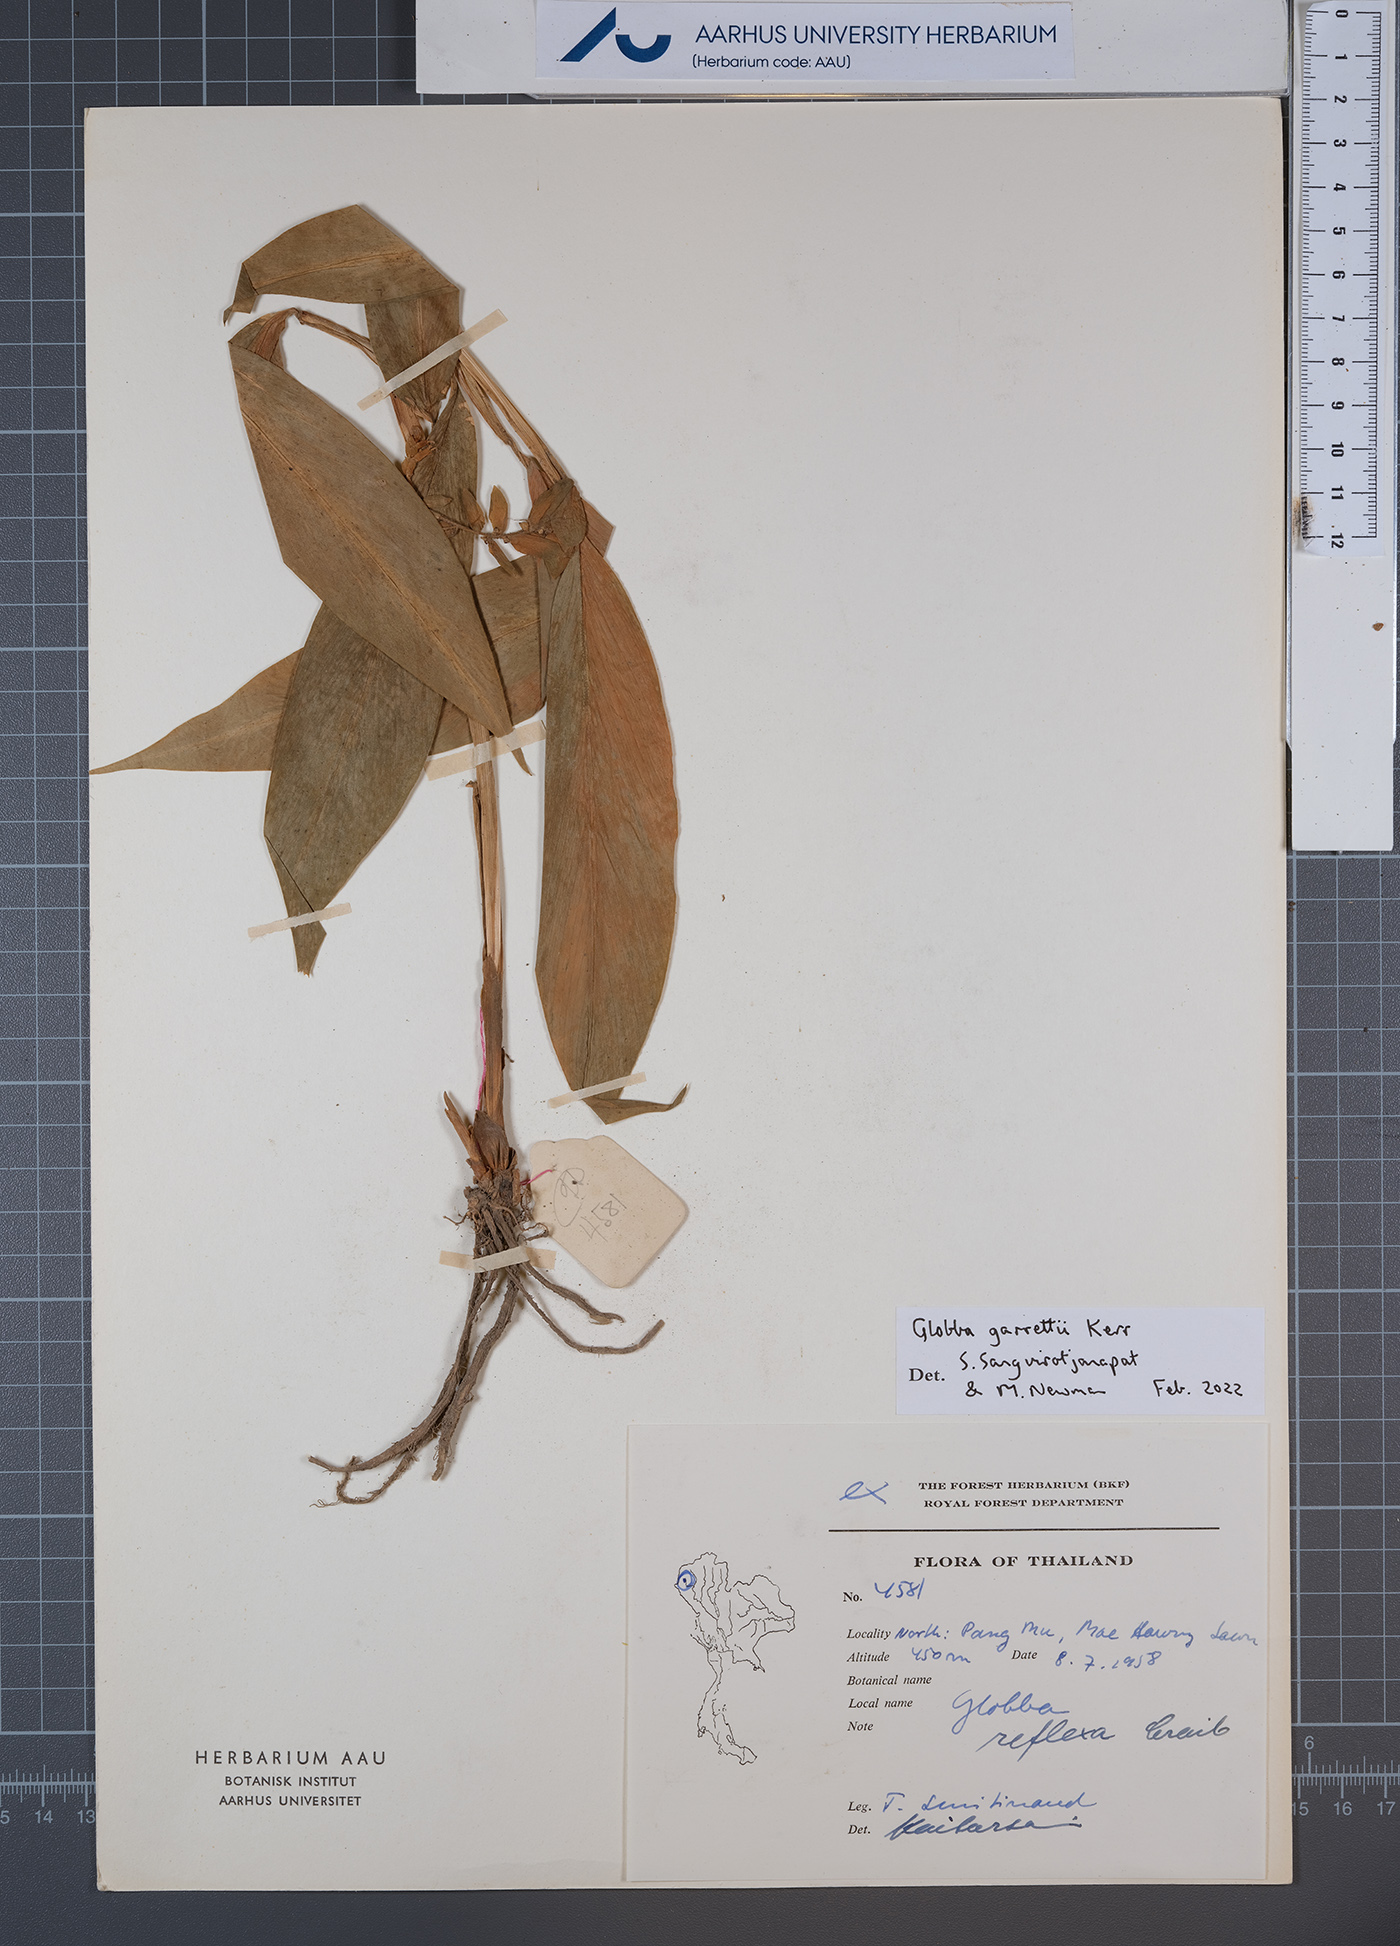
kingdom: Plantae
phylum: Tracheophyta
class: Liliopsida
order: Zingiberales
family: Zingiberaceae
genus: Globba
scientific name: Globba garrettii
